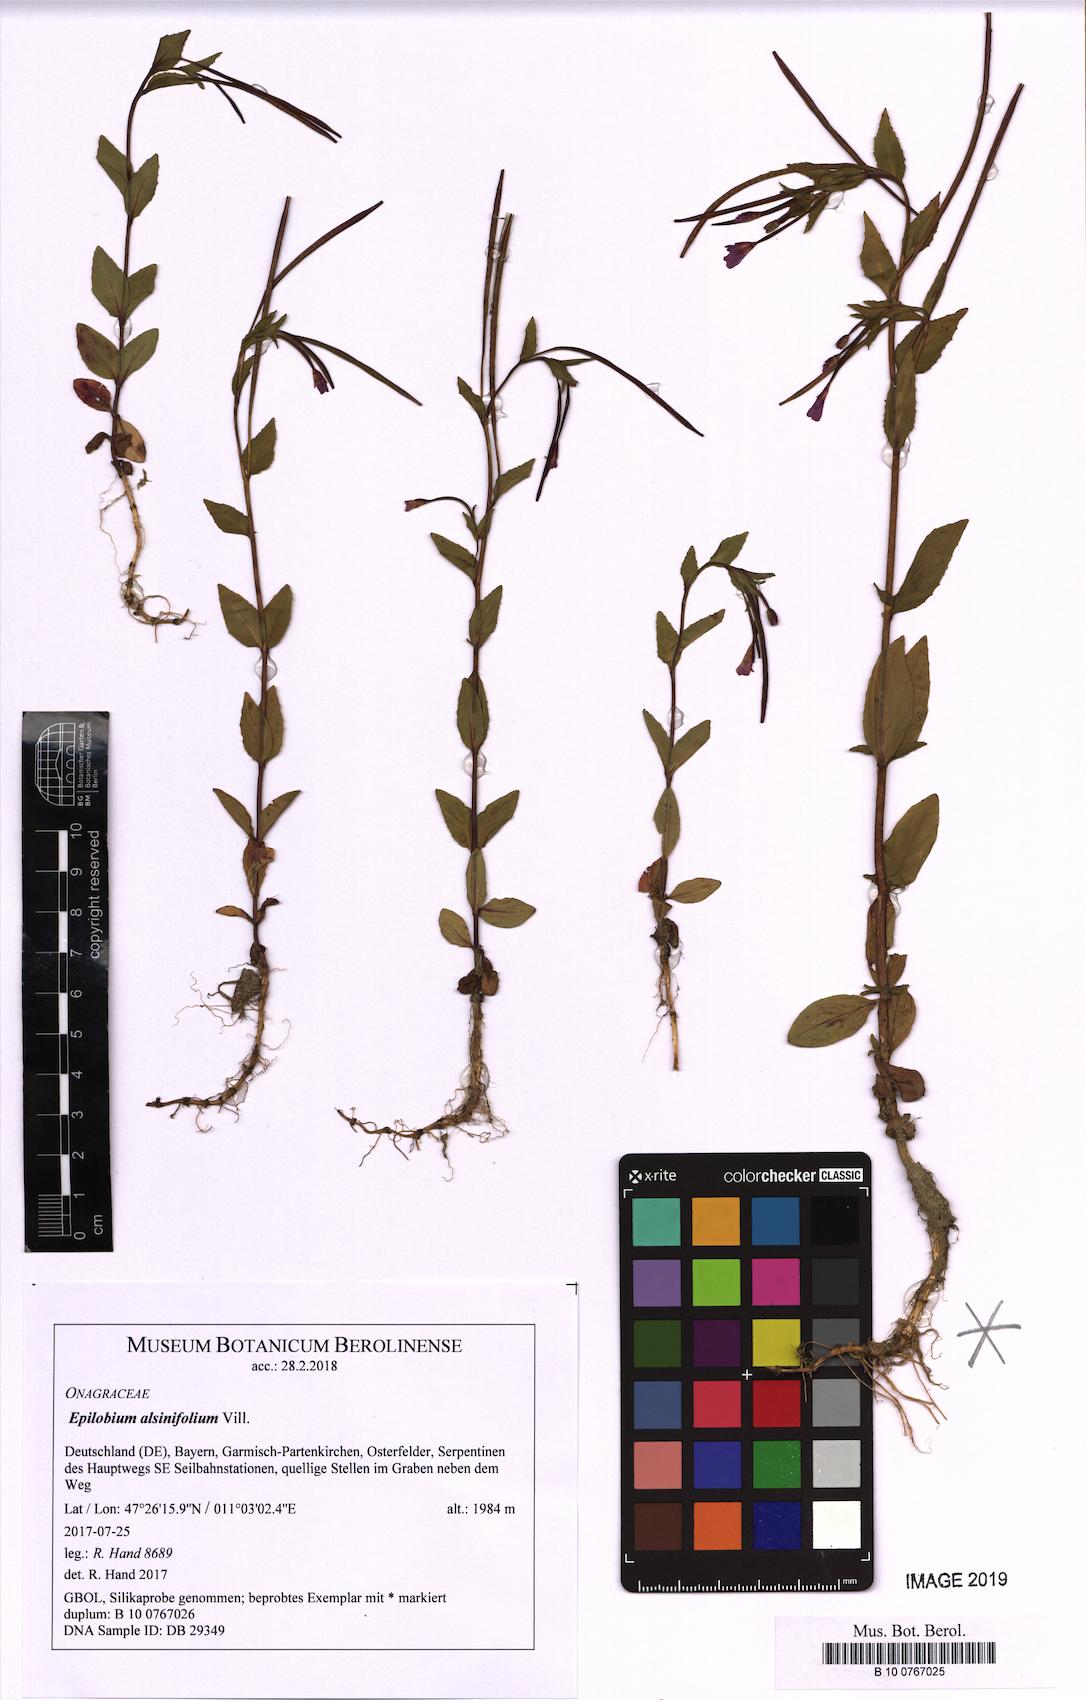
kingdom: Plantae
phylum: Tracheophyta
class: Magnoliopsida
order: Myrtales
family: Onagraceae
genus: Epilobium
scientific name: Epilobium alsinifolium
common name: Chickweed willowherb
